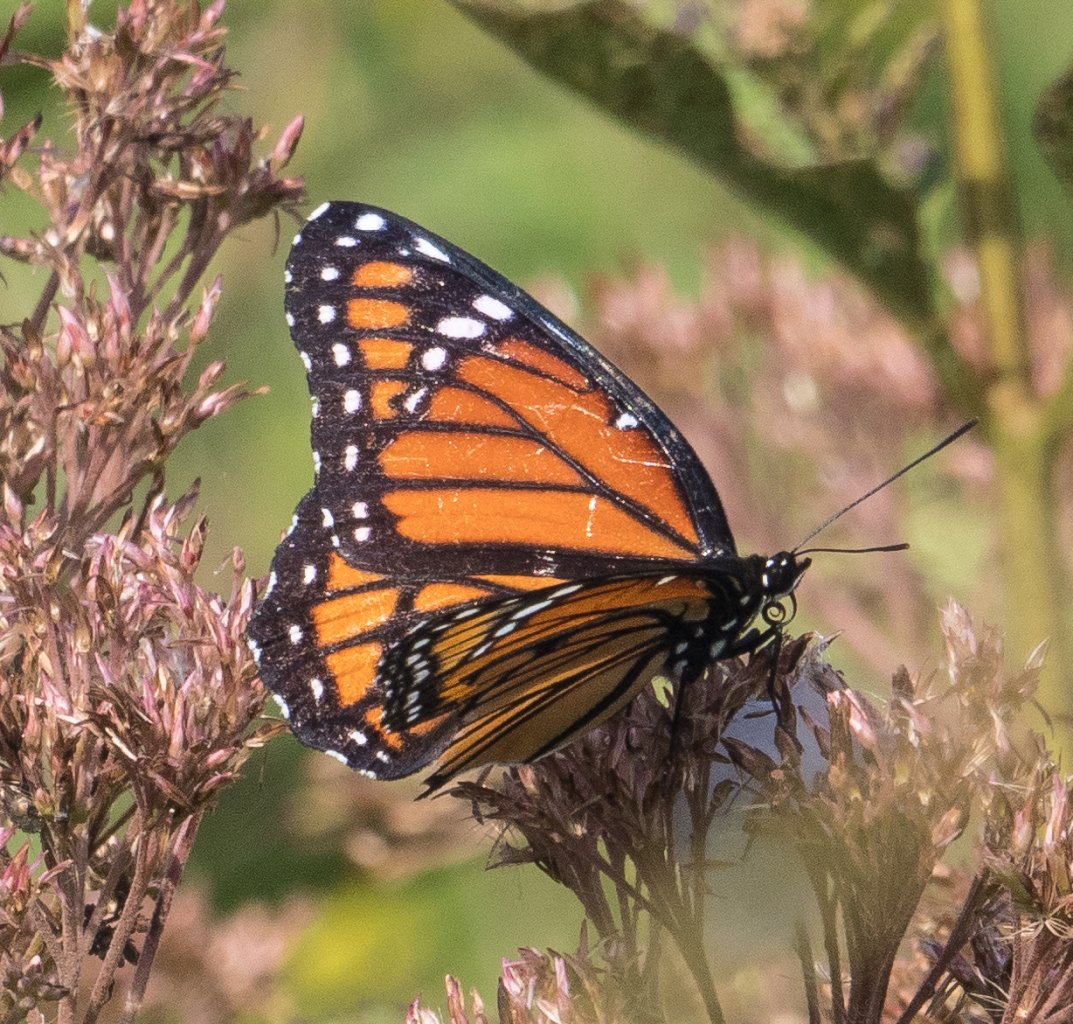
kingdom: Animalia
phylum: Arthropoda
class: Insecta
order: Lepidoptera
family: Nymphalidae
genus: Limenitis
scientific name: Limenitis archippus
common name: Viceroy
